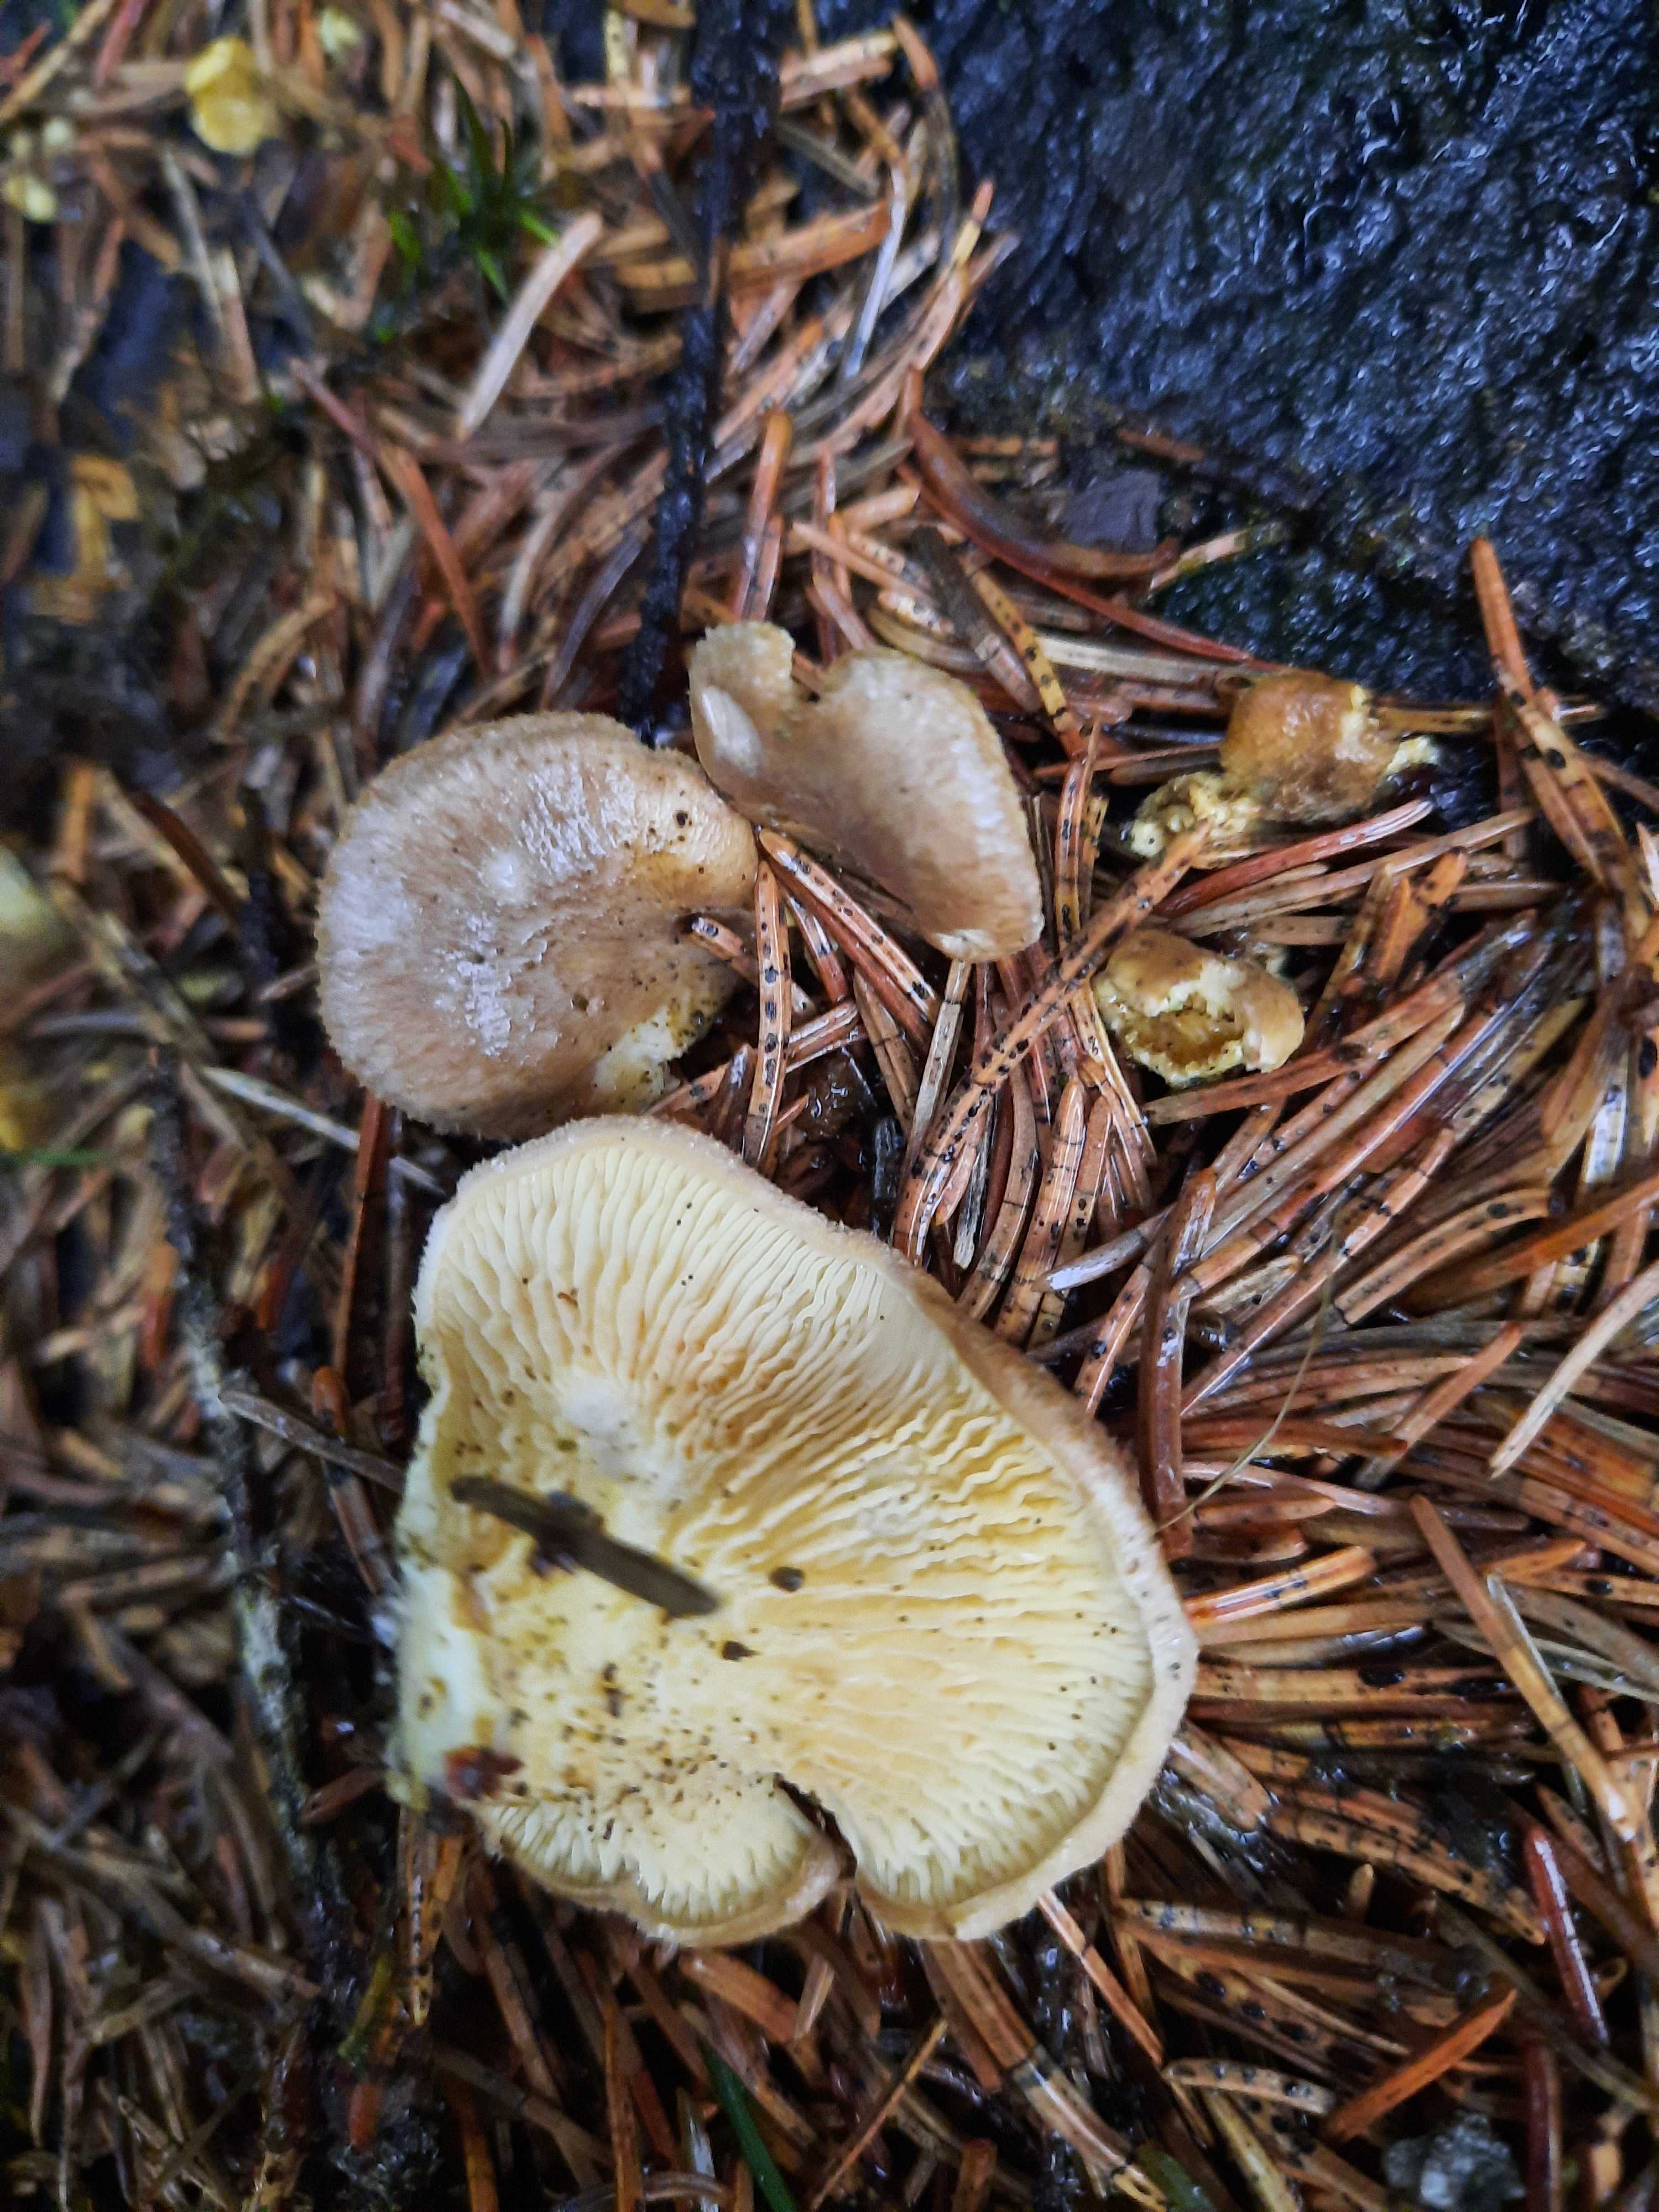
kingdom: Fungi
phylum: Basidiomycota
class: Agaricomycetes
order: Boletales
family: Tapinellaceae
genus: Tapinella
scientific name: Tapinella panuoides
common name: tømmer-viftesvamp
